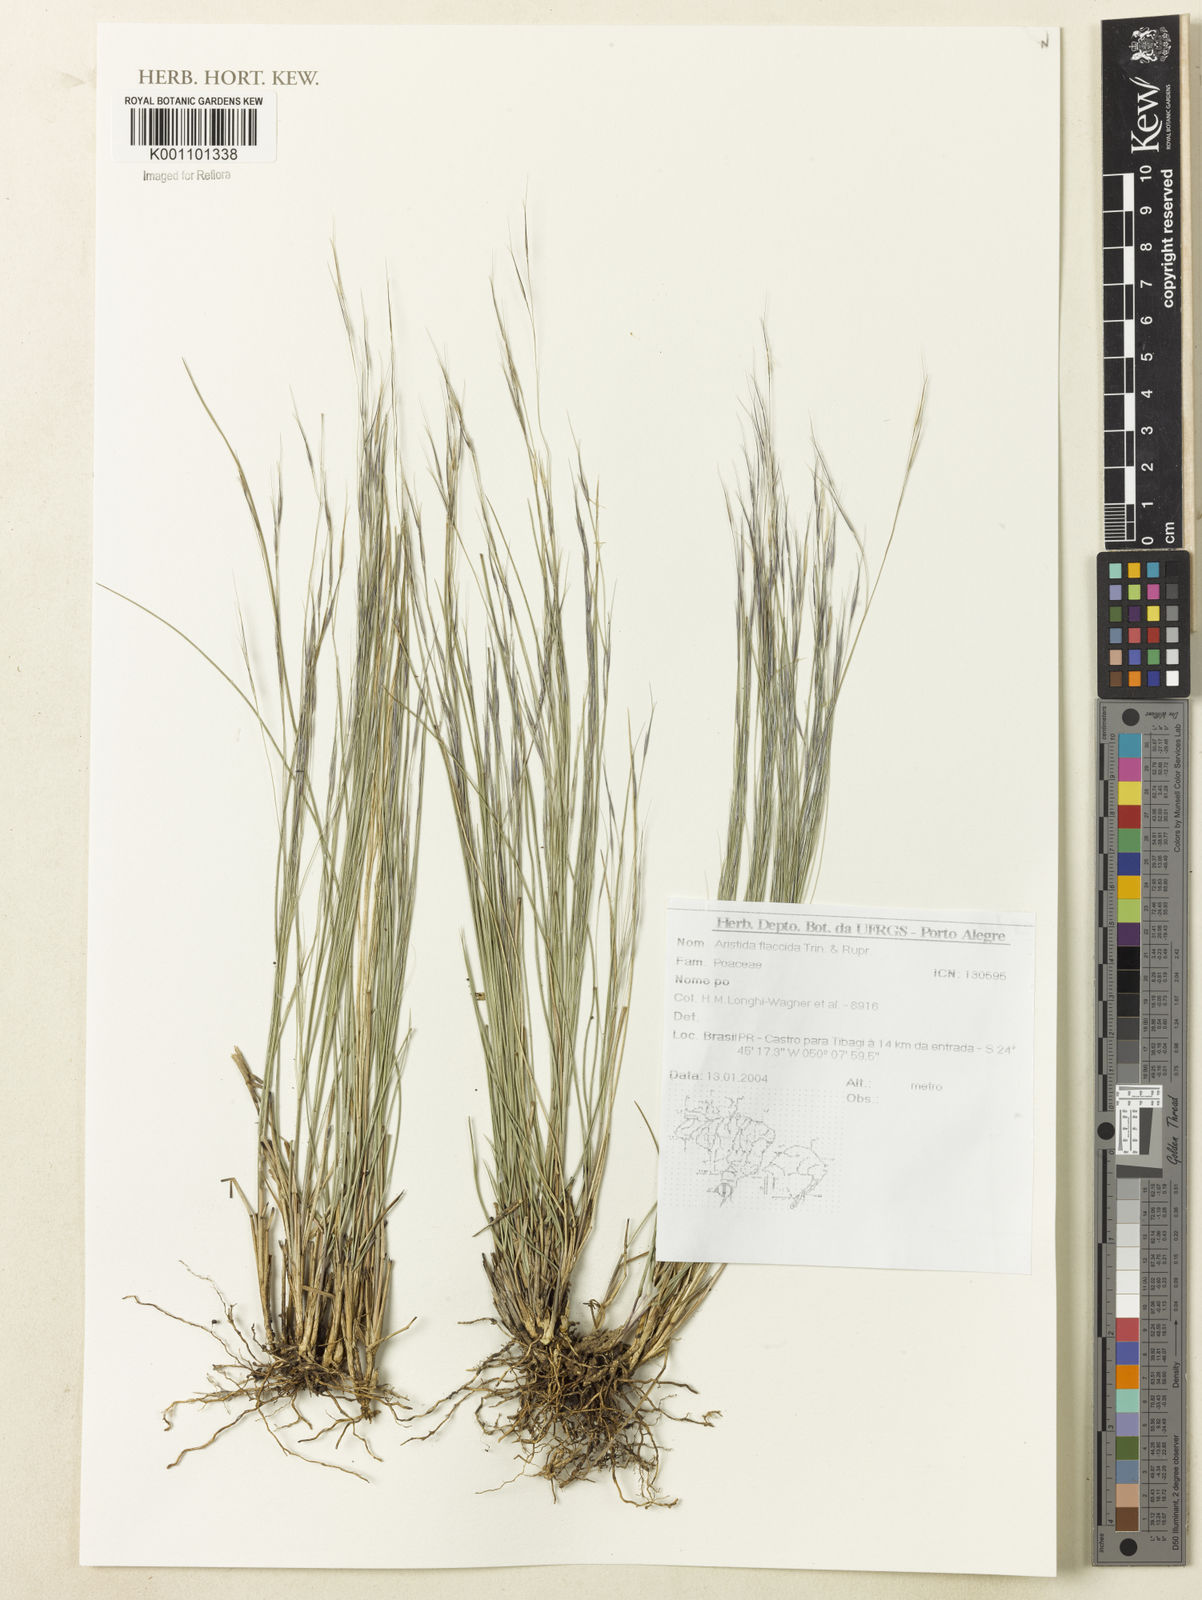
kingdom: Plantae
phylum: Tracheophyta
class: Liliopsida
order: Poales
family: Poaceae
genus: Aristida
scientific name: Aristida flaccida
